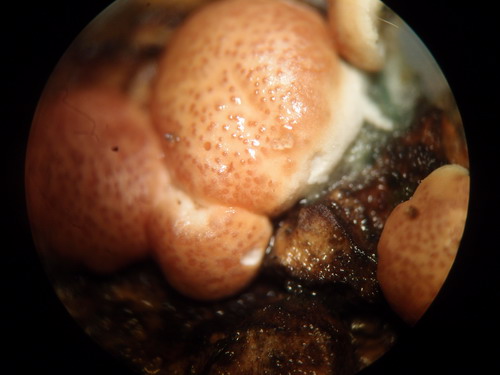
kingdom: Fungi
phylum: Ascomycota
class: Sordariomycetes
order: Hypocreales
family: Hypocreaceae
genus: Trichoderma
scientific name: Trichoderma europaeum
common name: rosabrun kødkerne
